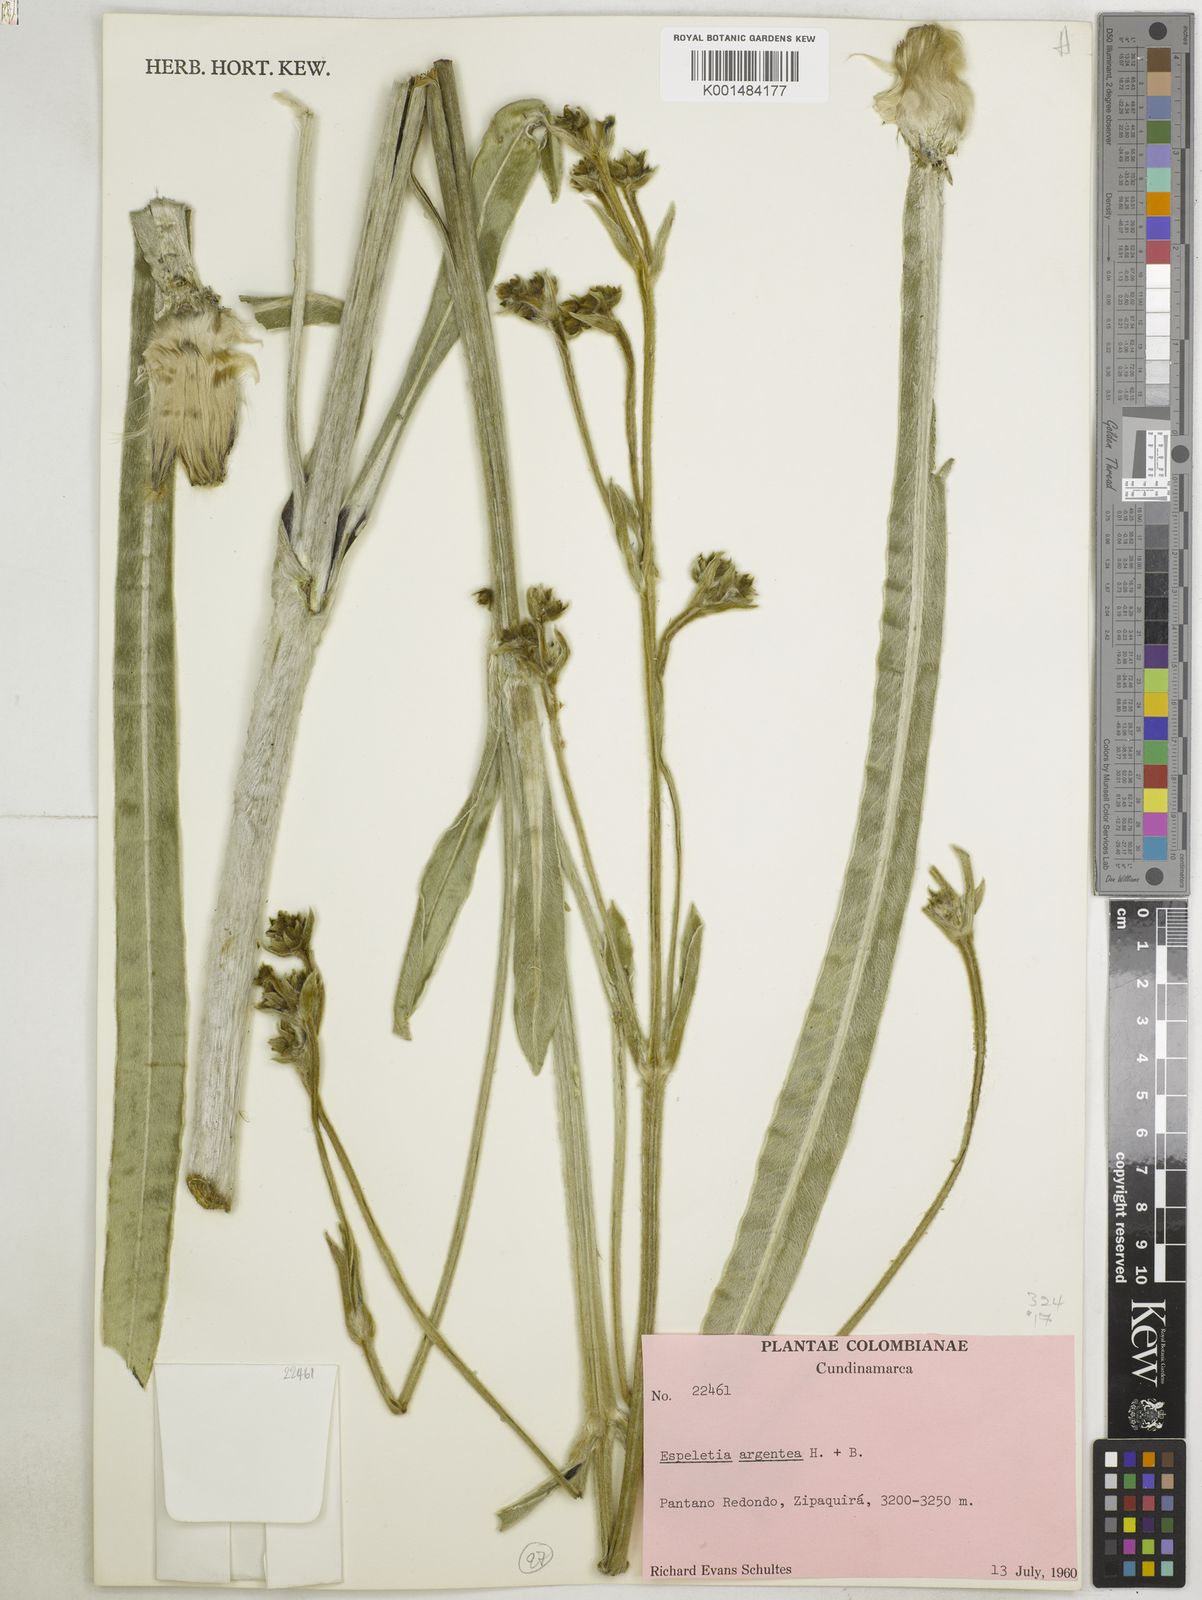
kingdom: Plantae
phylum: Tracheophyta
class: Magnoliopsida
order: Asterales
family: Asteraceae
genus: Espeletia
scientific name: Espeletia argentea
